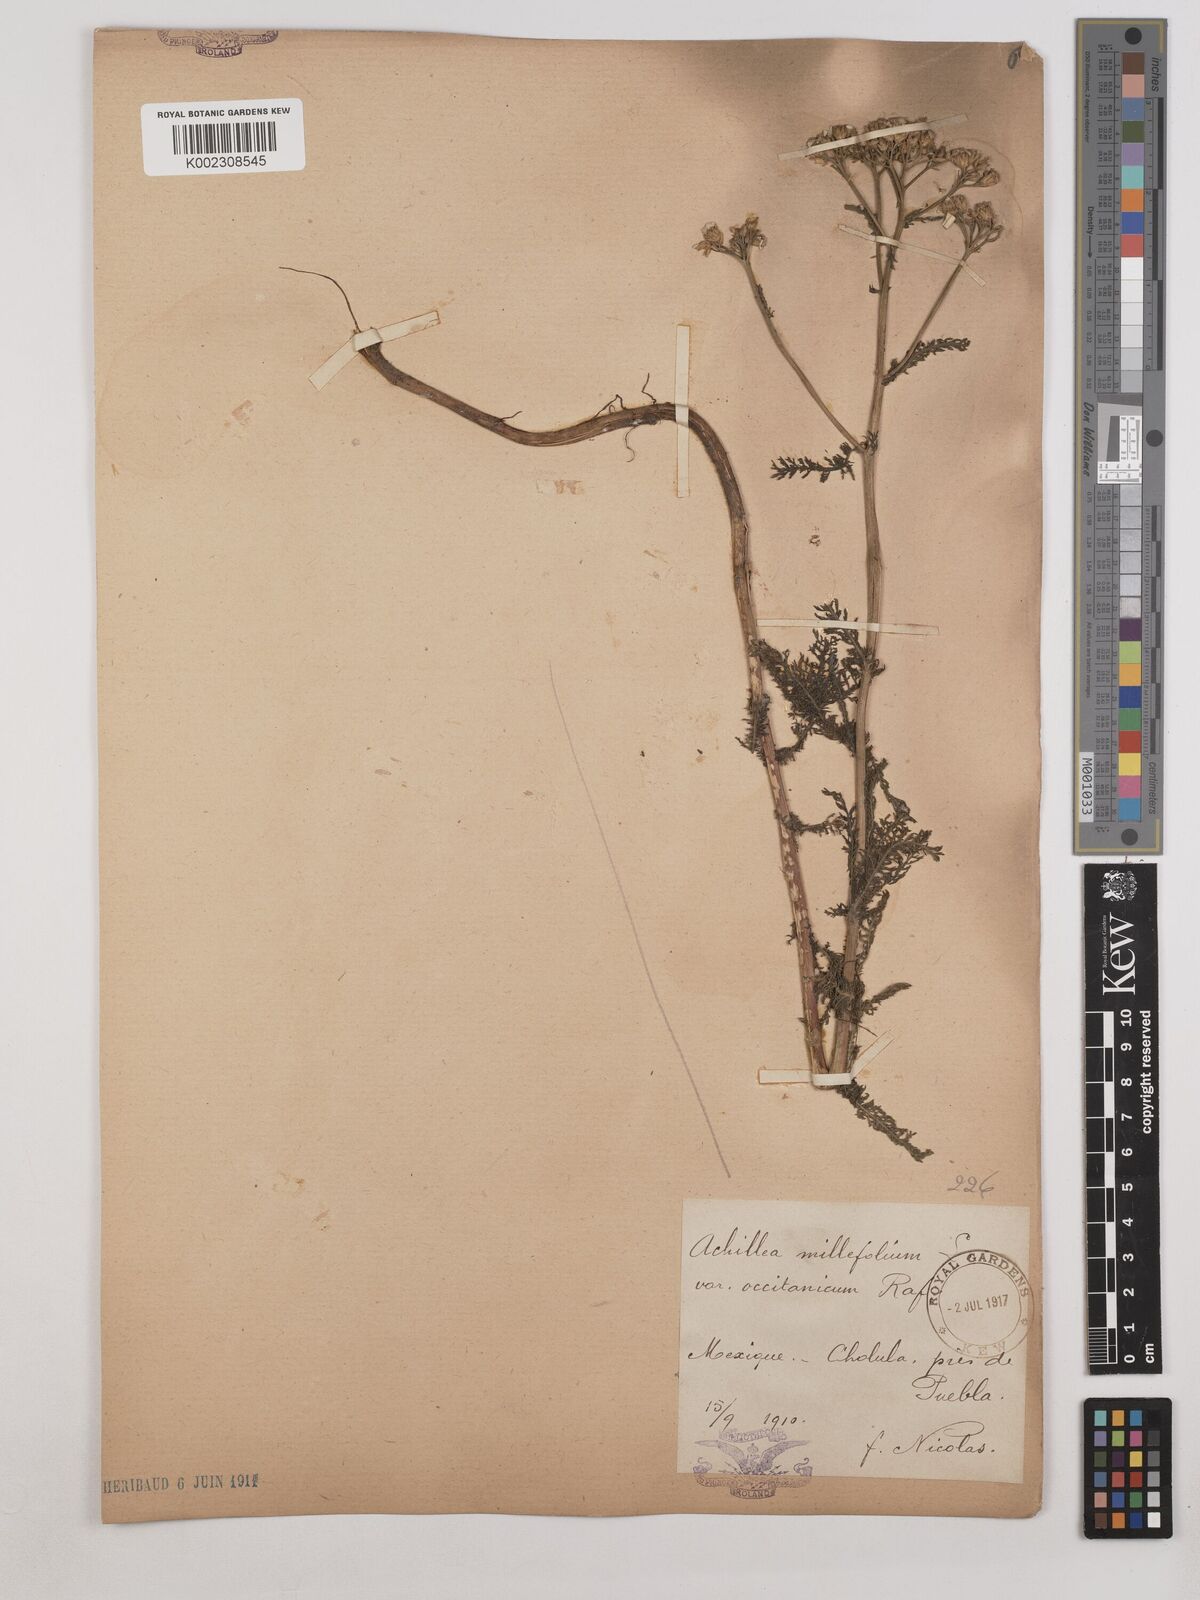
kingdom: Plantae
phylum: Tracheophyta
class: Magnoliopsida
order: Asterales
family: Asteraceae
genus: Achillea
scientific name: Achillea millefolium
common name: Yarrow
